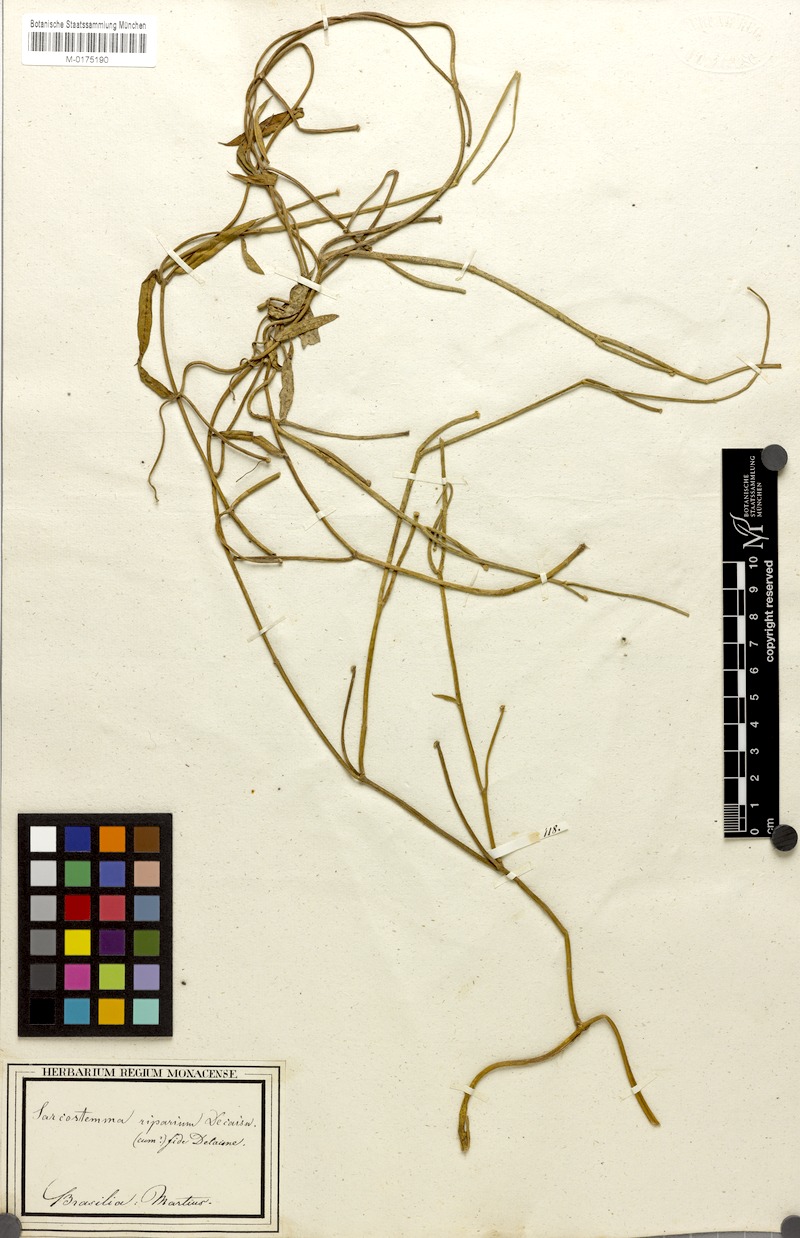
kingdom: Plantae
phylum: Tracheophyta
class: Magnoliopsida
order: Gentianales
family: Apocynaceae
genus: Funastrum
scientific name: Funastrum clausum
